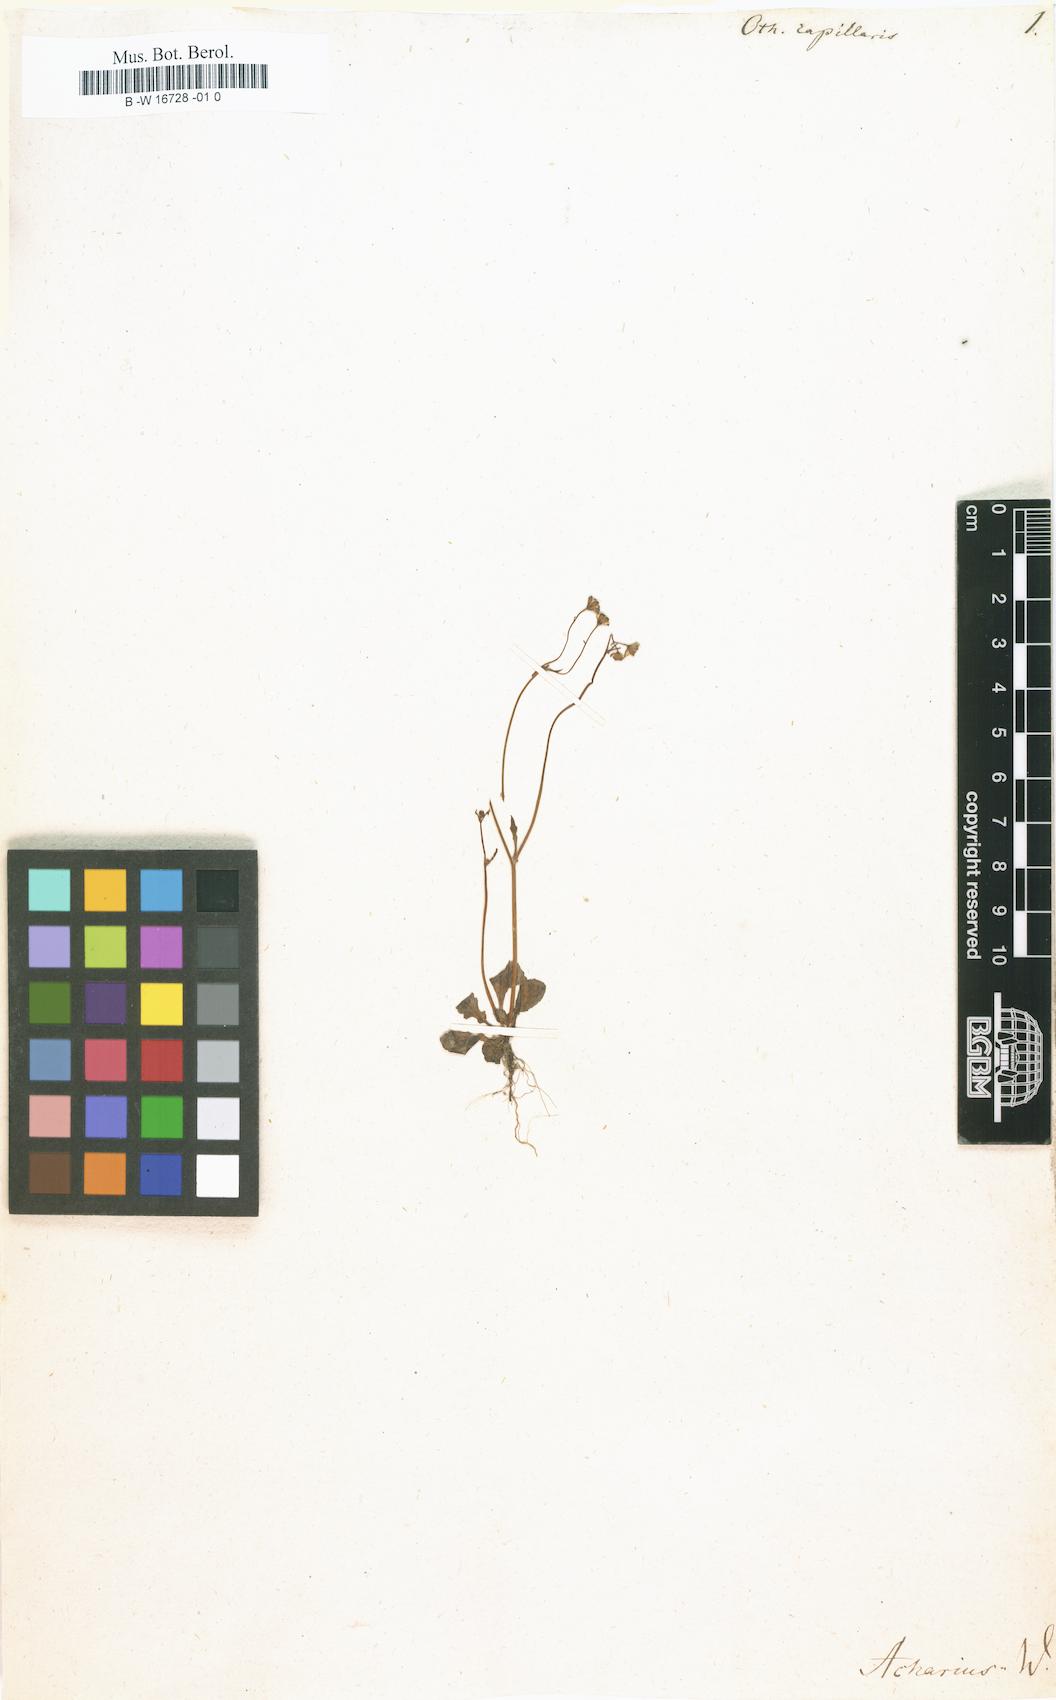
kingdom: Plantae
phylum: Tracheophyta
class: Magnoliopsida
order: Asterales
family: Asteraceae
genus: Gymnodiscus
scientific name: Gymnodiscus capillaris
